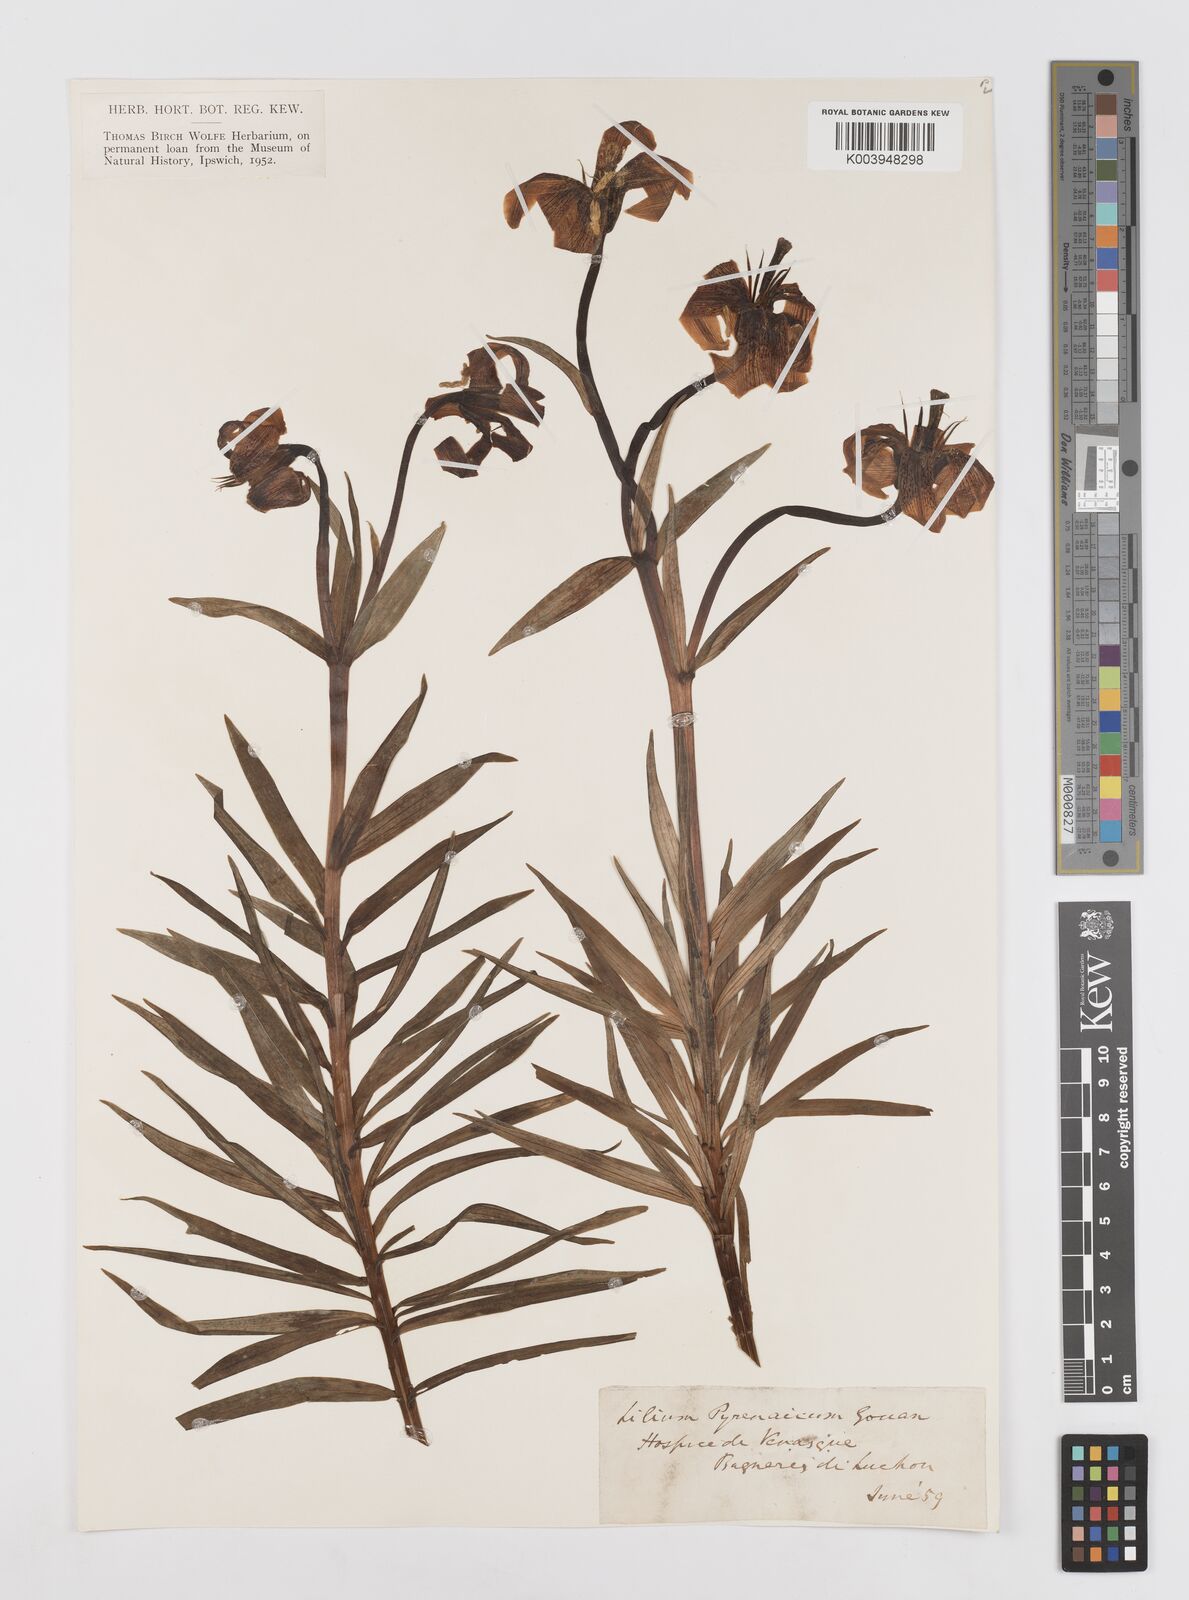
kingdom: Plantae
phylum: Tracheophyta
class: Liliopsida
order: Liliales
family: Liliaceae
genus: Lilium
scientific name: Lilium pyrenaicum
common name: Pyrenean lily
